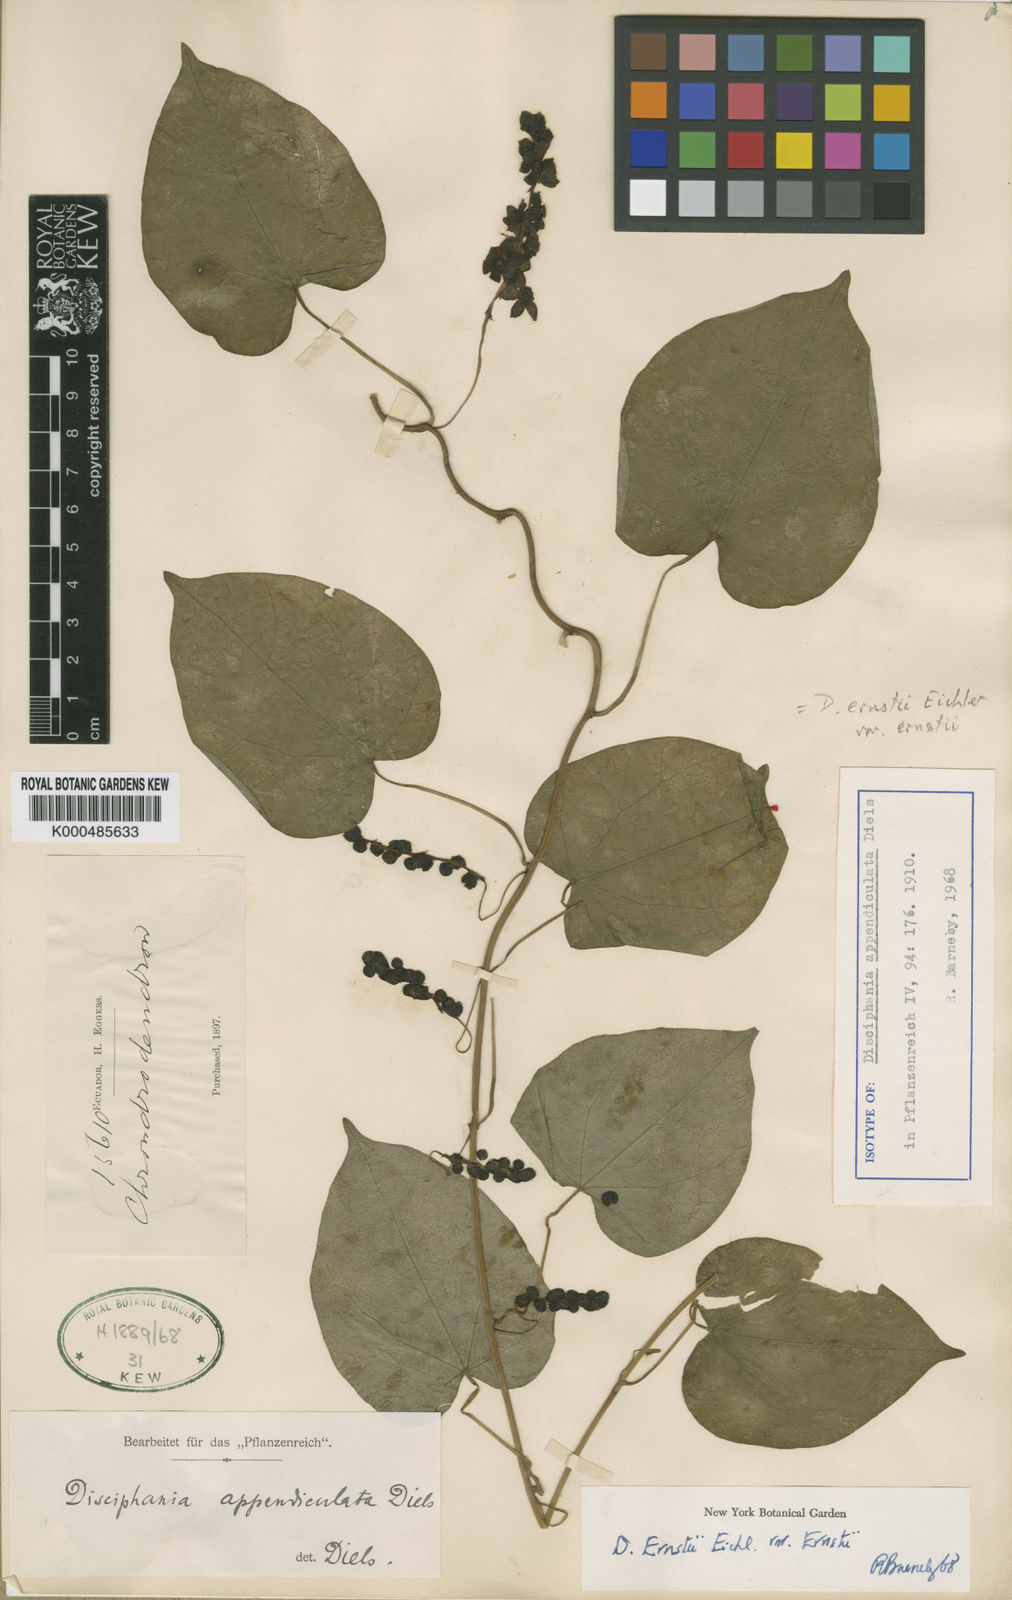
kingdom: Plantae
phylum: Tracheophyta
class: Magnoliopsida
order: Ranunculales
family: Menispermaceae
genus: Disciphania
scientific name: Disciphania ernstii
